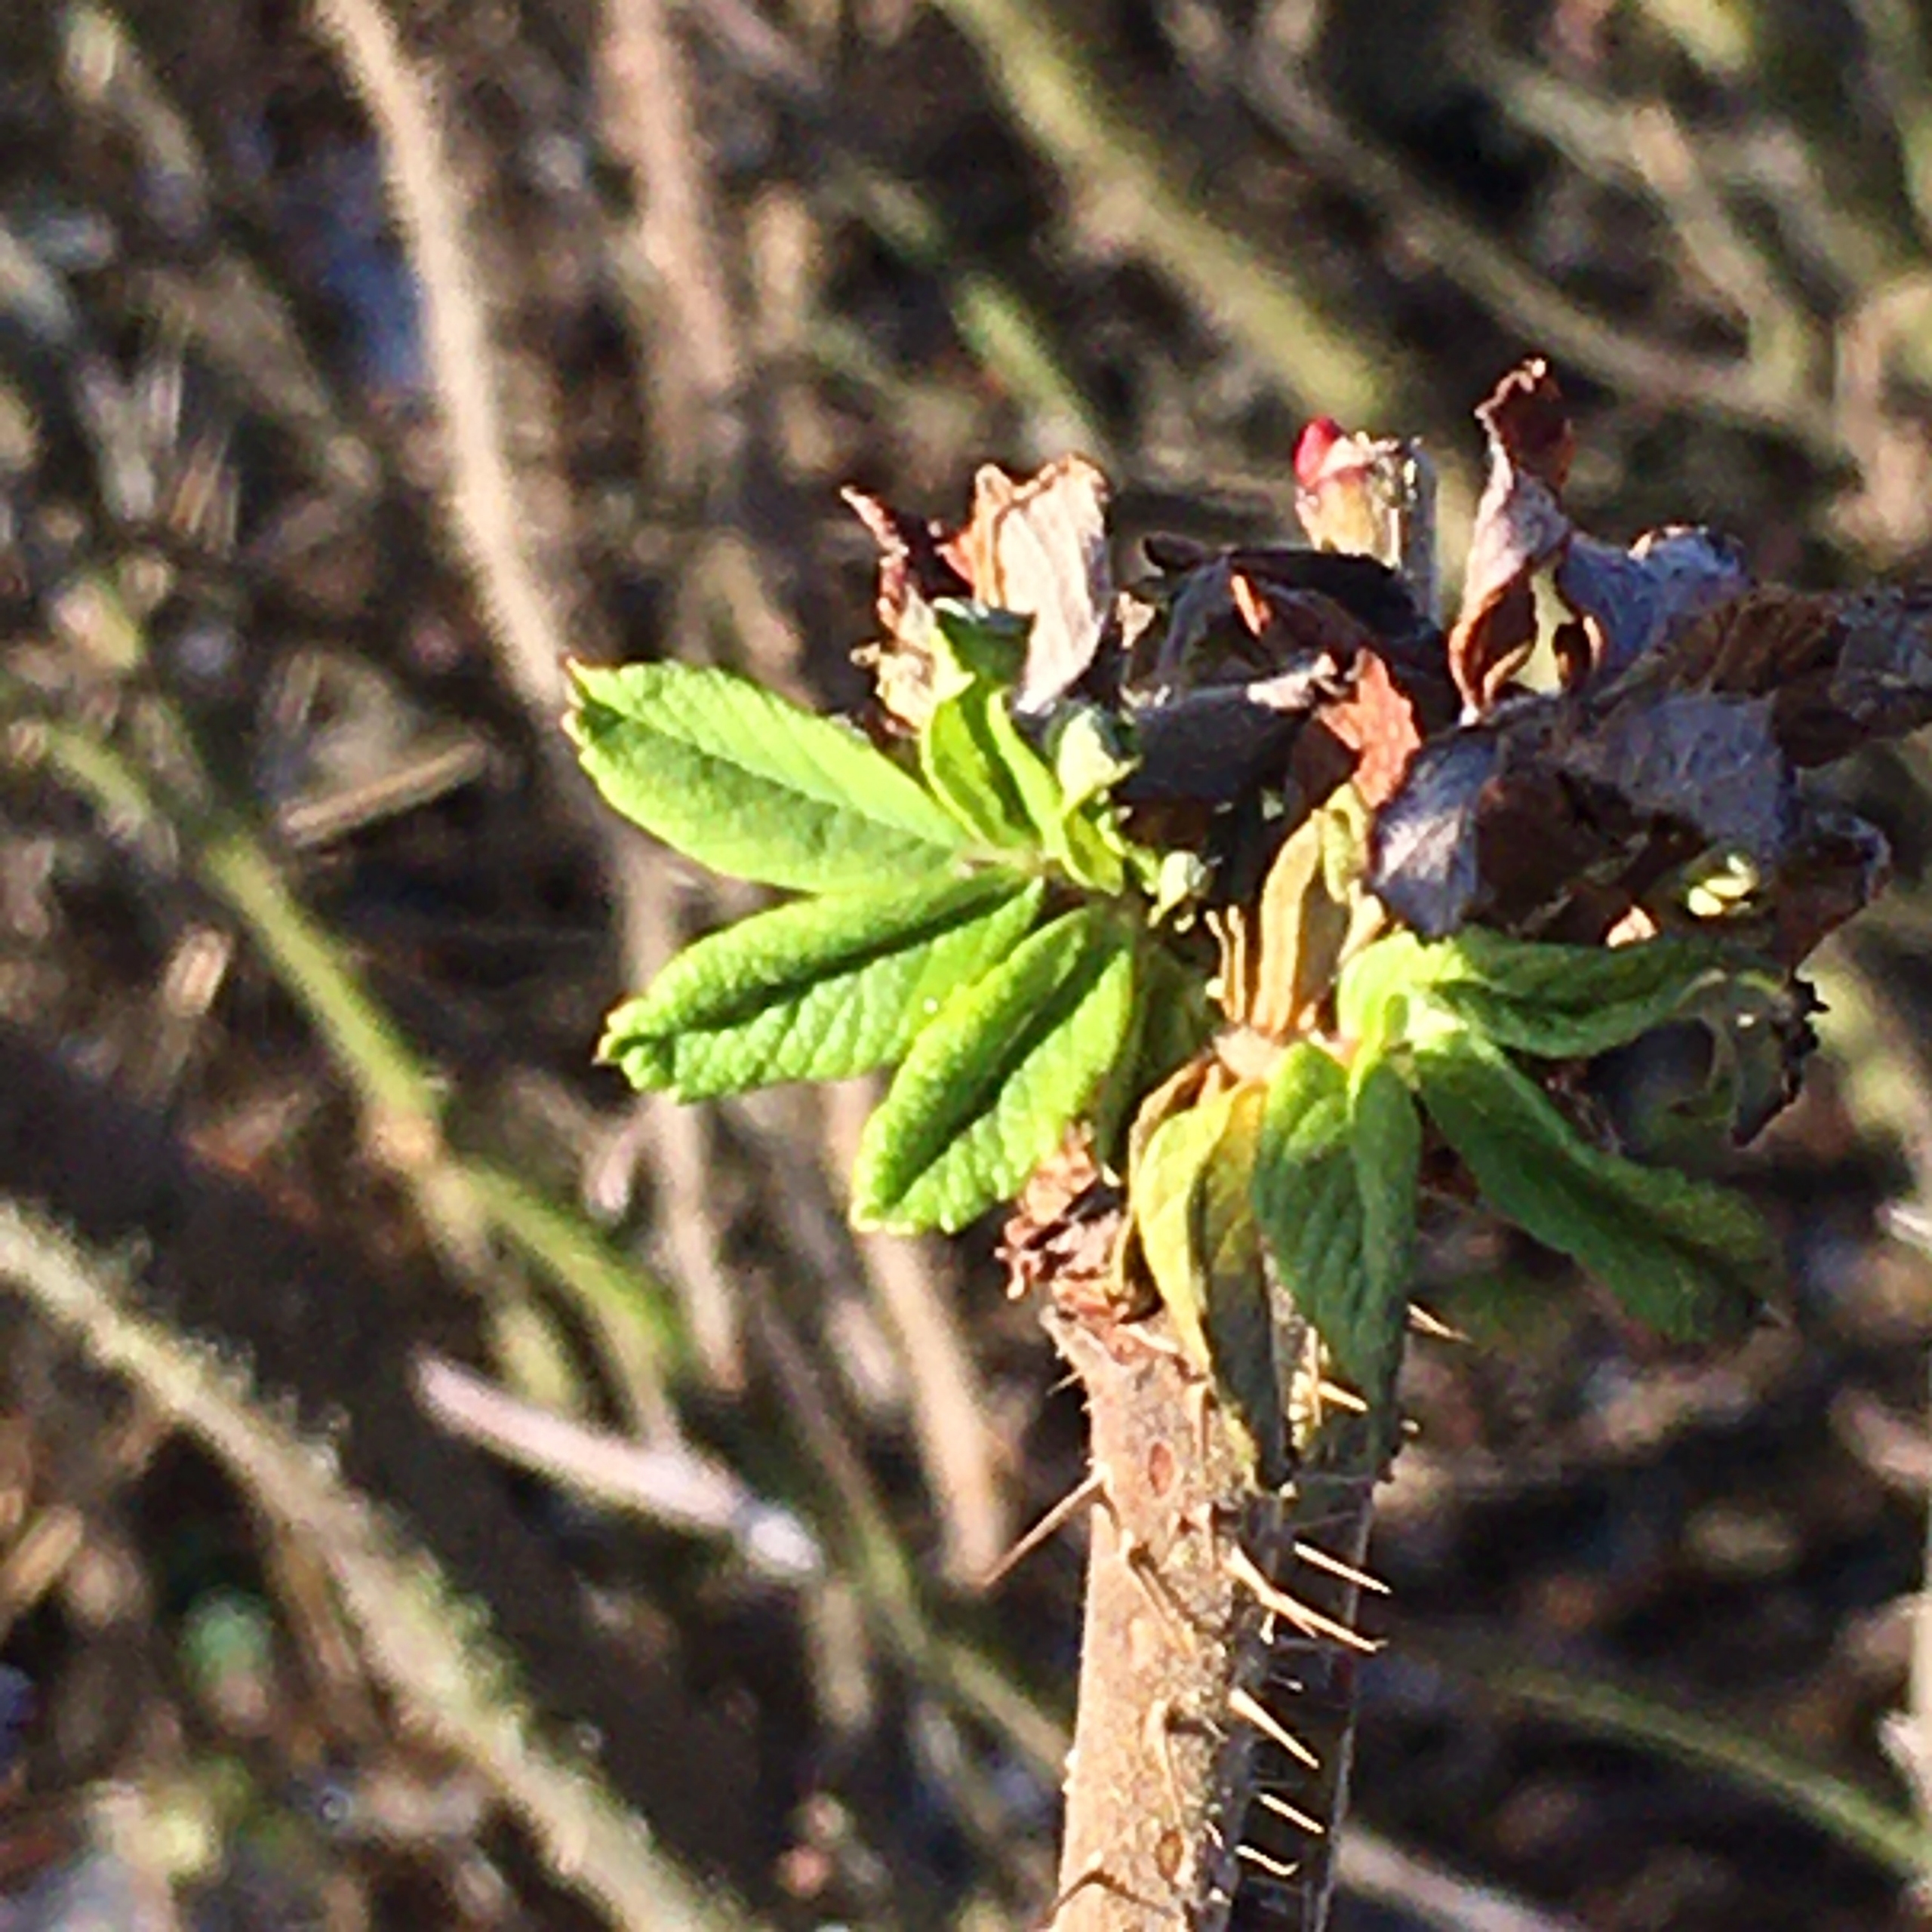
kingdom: Plantae
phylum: Tracheophyta
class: Magnoliopsida
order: Rosales
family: Rosaceae
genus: Rosa
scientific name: Rosa rugosa
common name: Rynket rose
